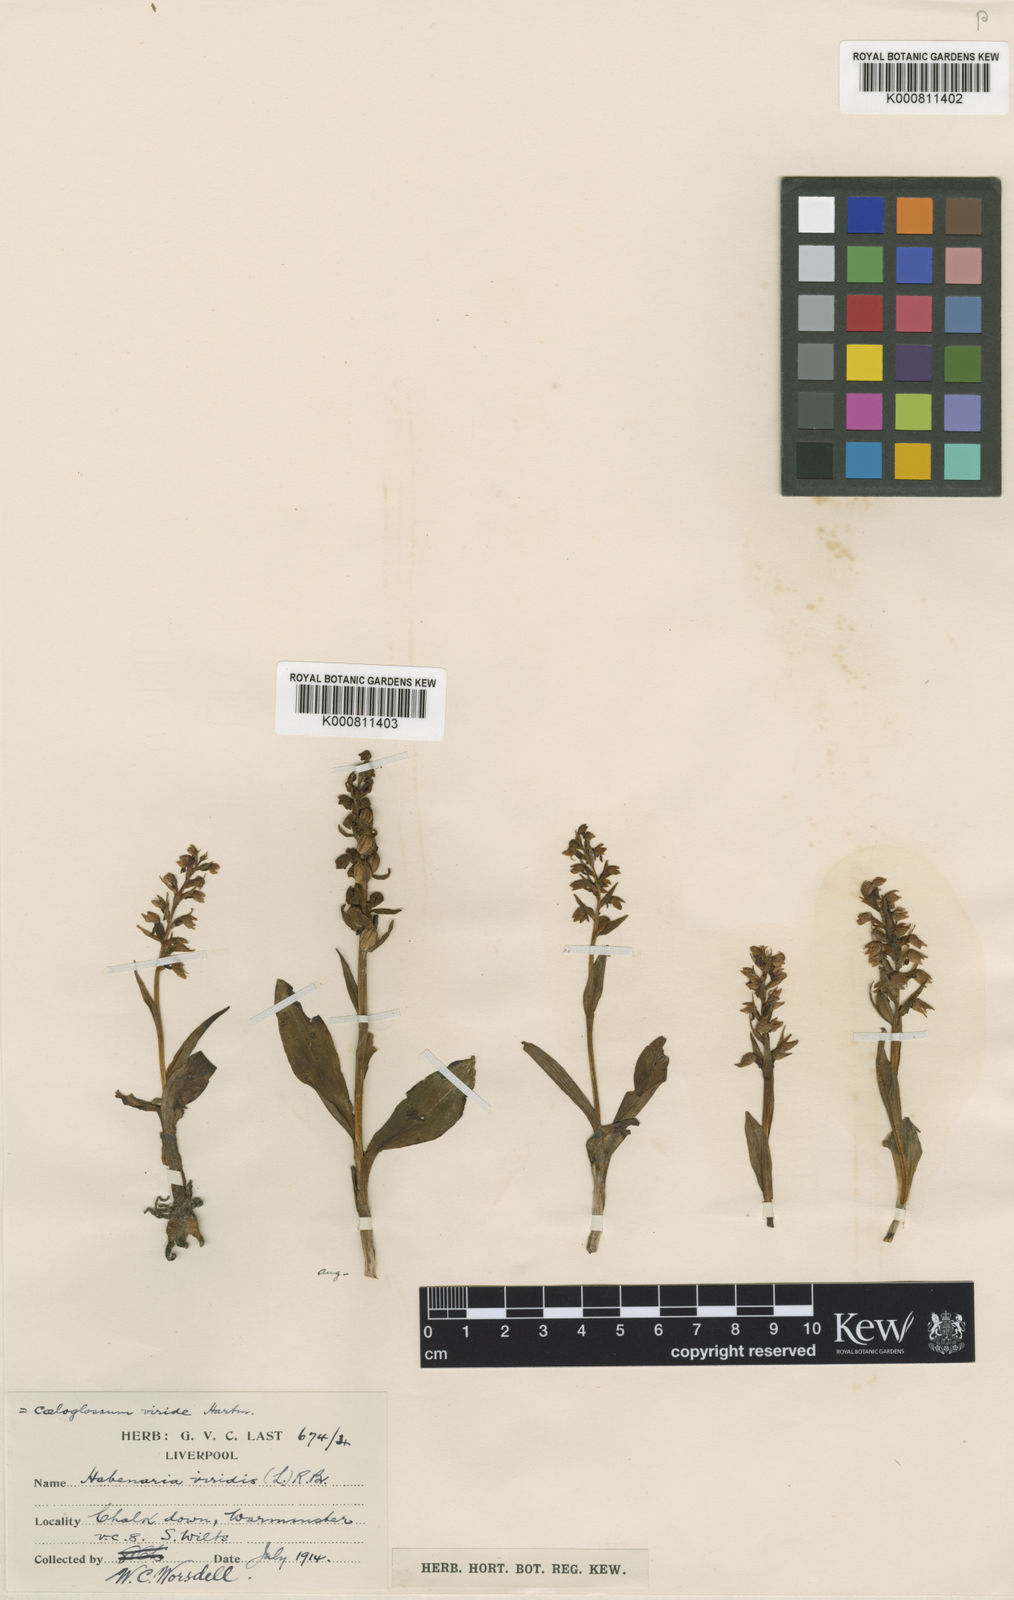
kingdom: Plantae
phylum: Tracheophyta
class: Liliopsida
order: Asparagales
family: Orchidaceae
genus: Dactylorhiza
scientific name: Dactylorhiza viridis
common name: Longbract frog orchid
